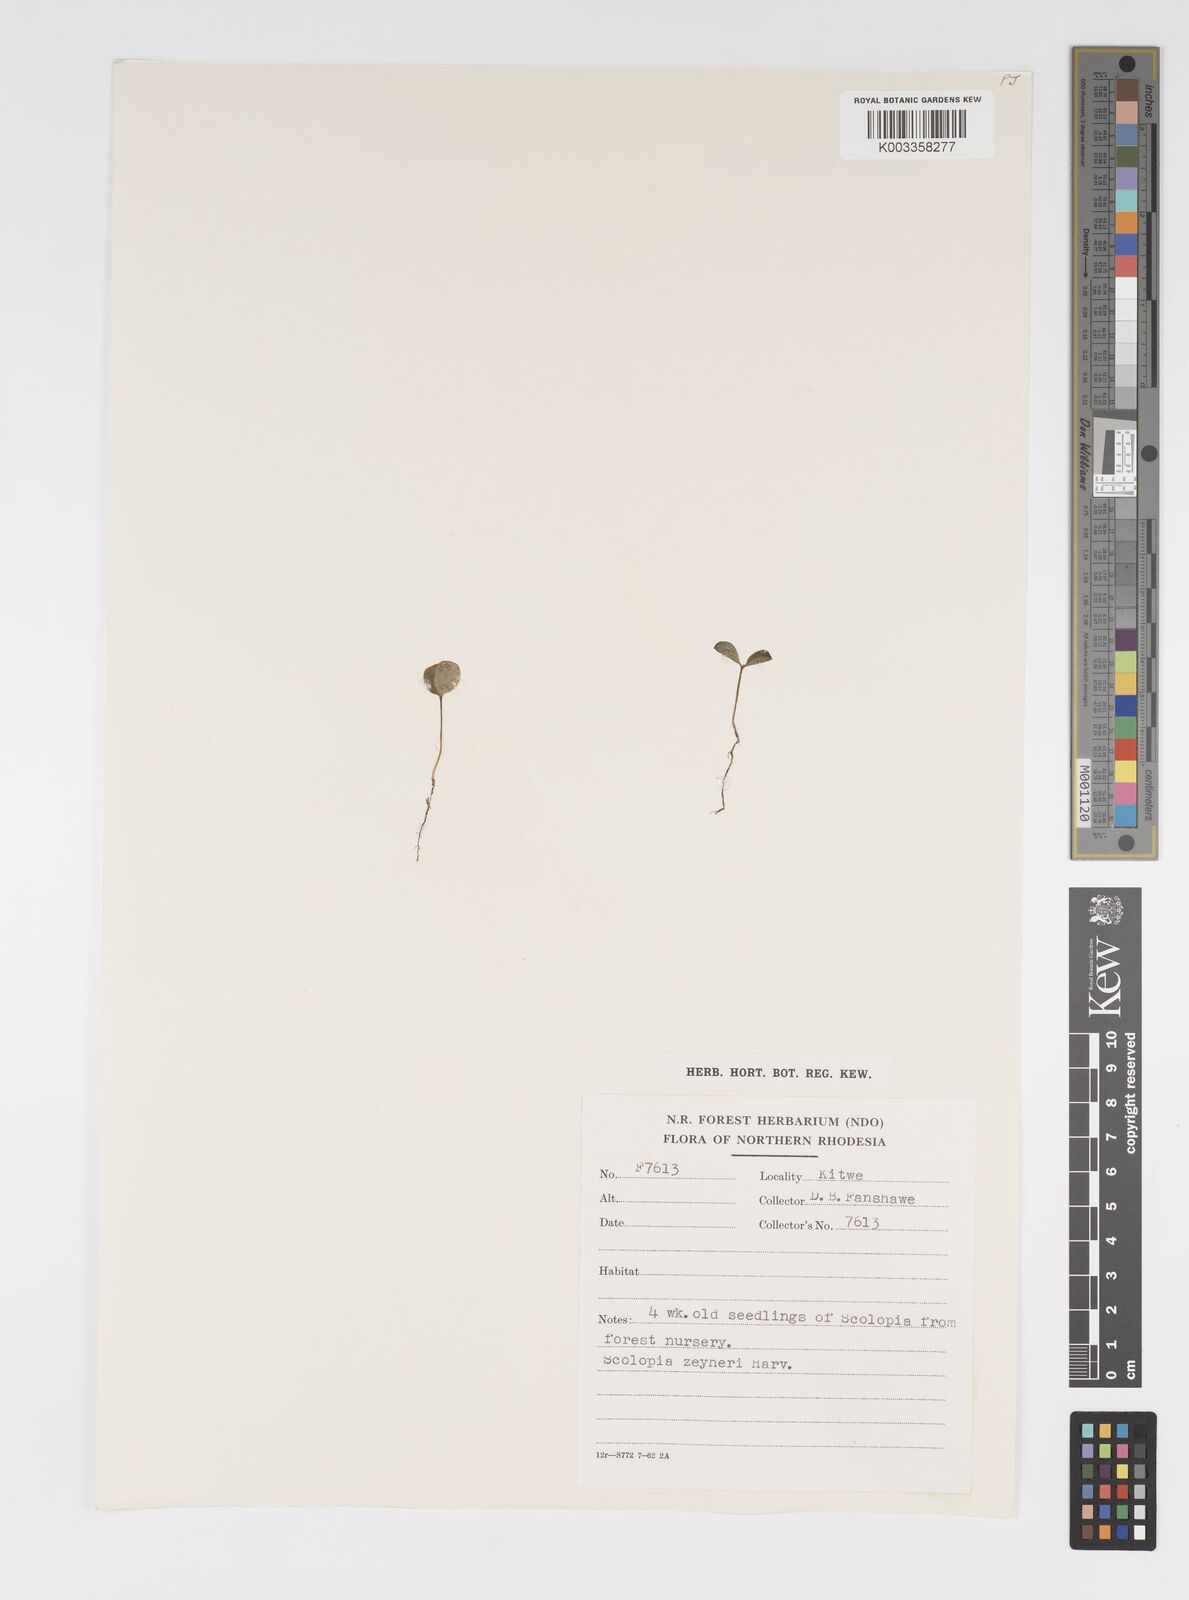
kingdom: Plantae
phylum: Tracheophyta
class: Magnoliopsida
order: Malpighiales
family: Salicaceae
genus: Scolopia
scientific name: Scolopia zeyheri
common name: Thorn pear
